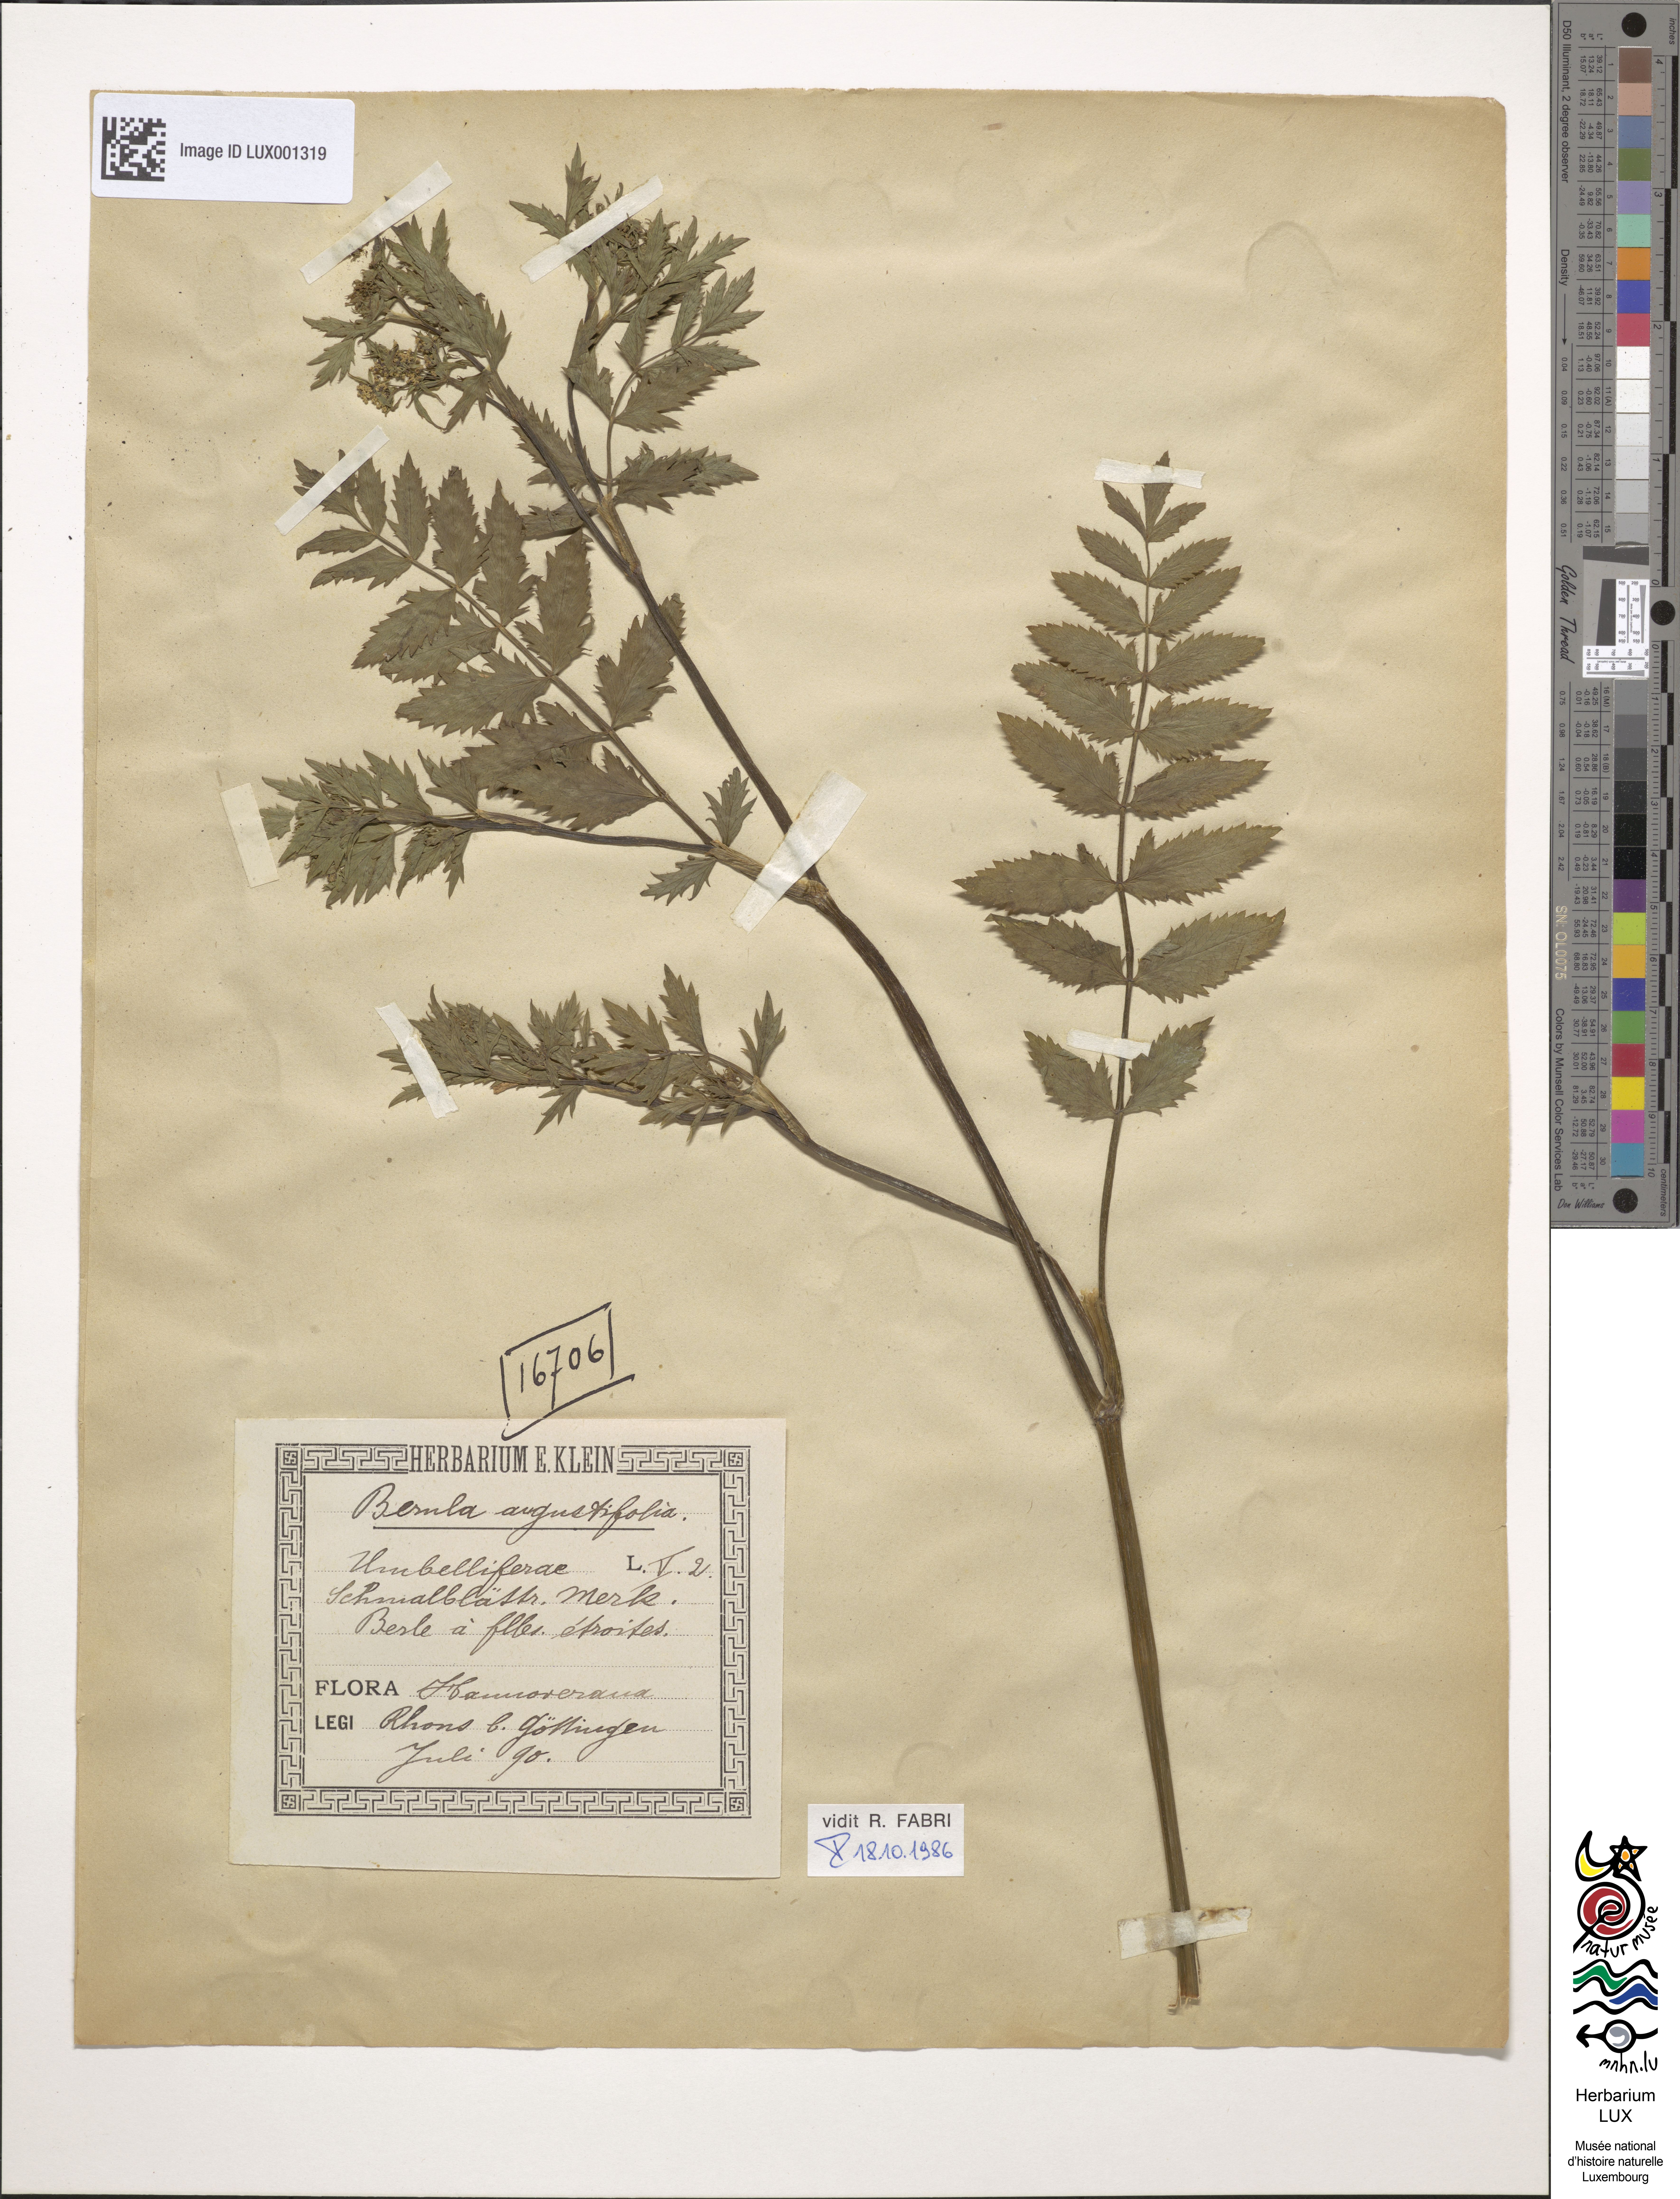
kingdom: Plantae
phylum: Tracheophyta
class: Magnoliopsida
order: Apiales
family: Apiaceae
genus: Berula
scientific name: Berula erecta
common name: Lesser water-parsnip
